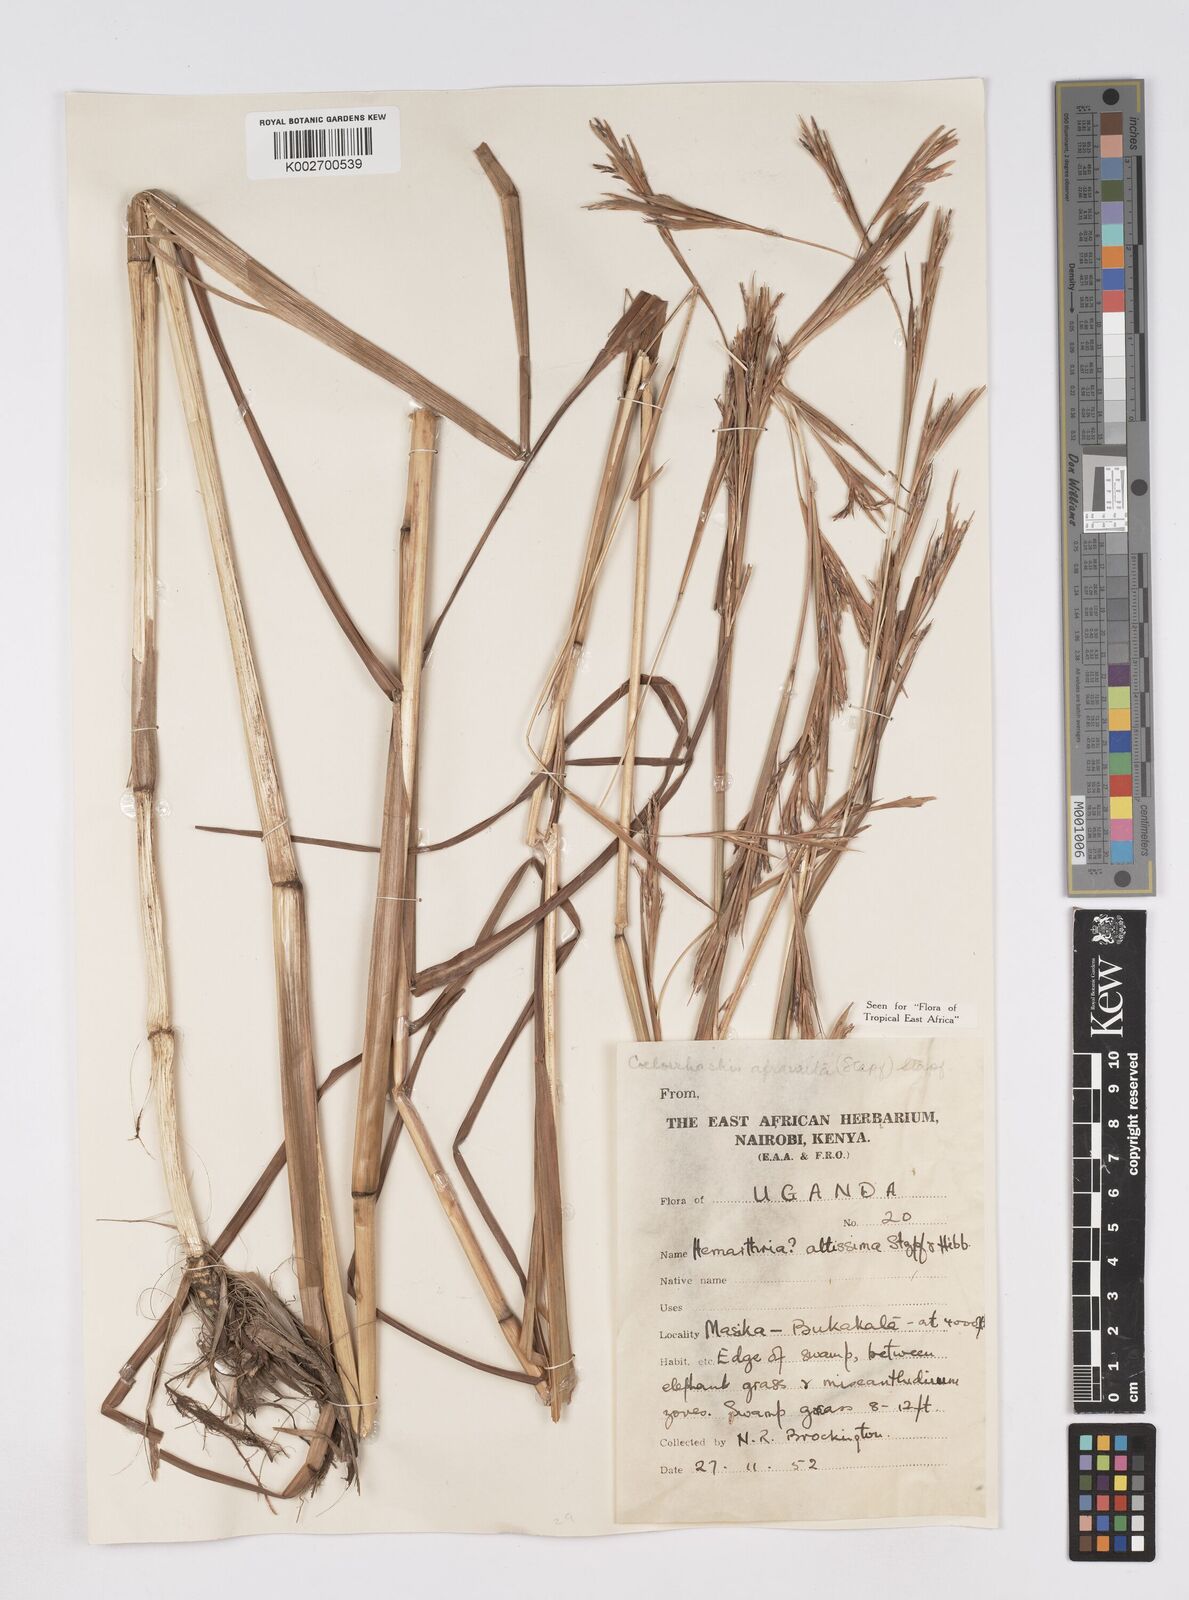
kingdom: Plantae
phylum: Tracheophyta
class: Liliopsida
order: Poales
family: Poaceae
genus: Rottboellia
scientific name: Rottboellia afraurita
